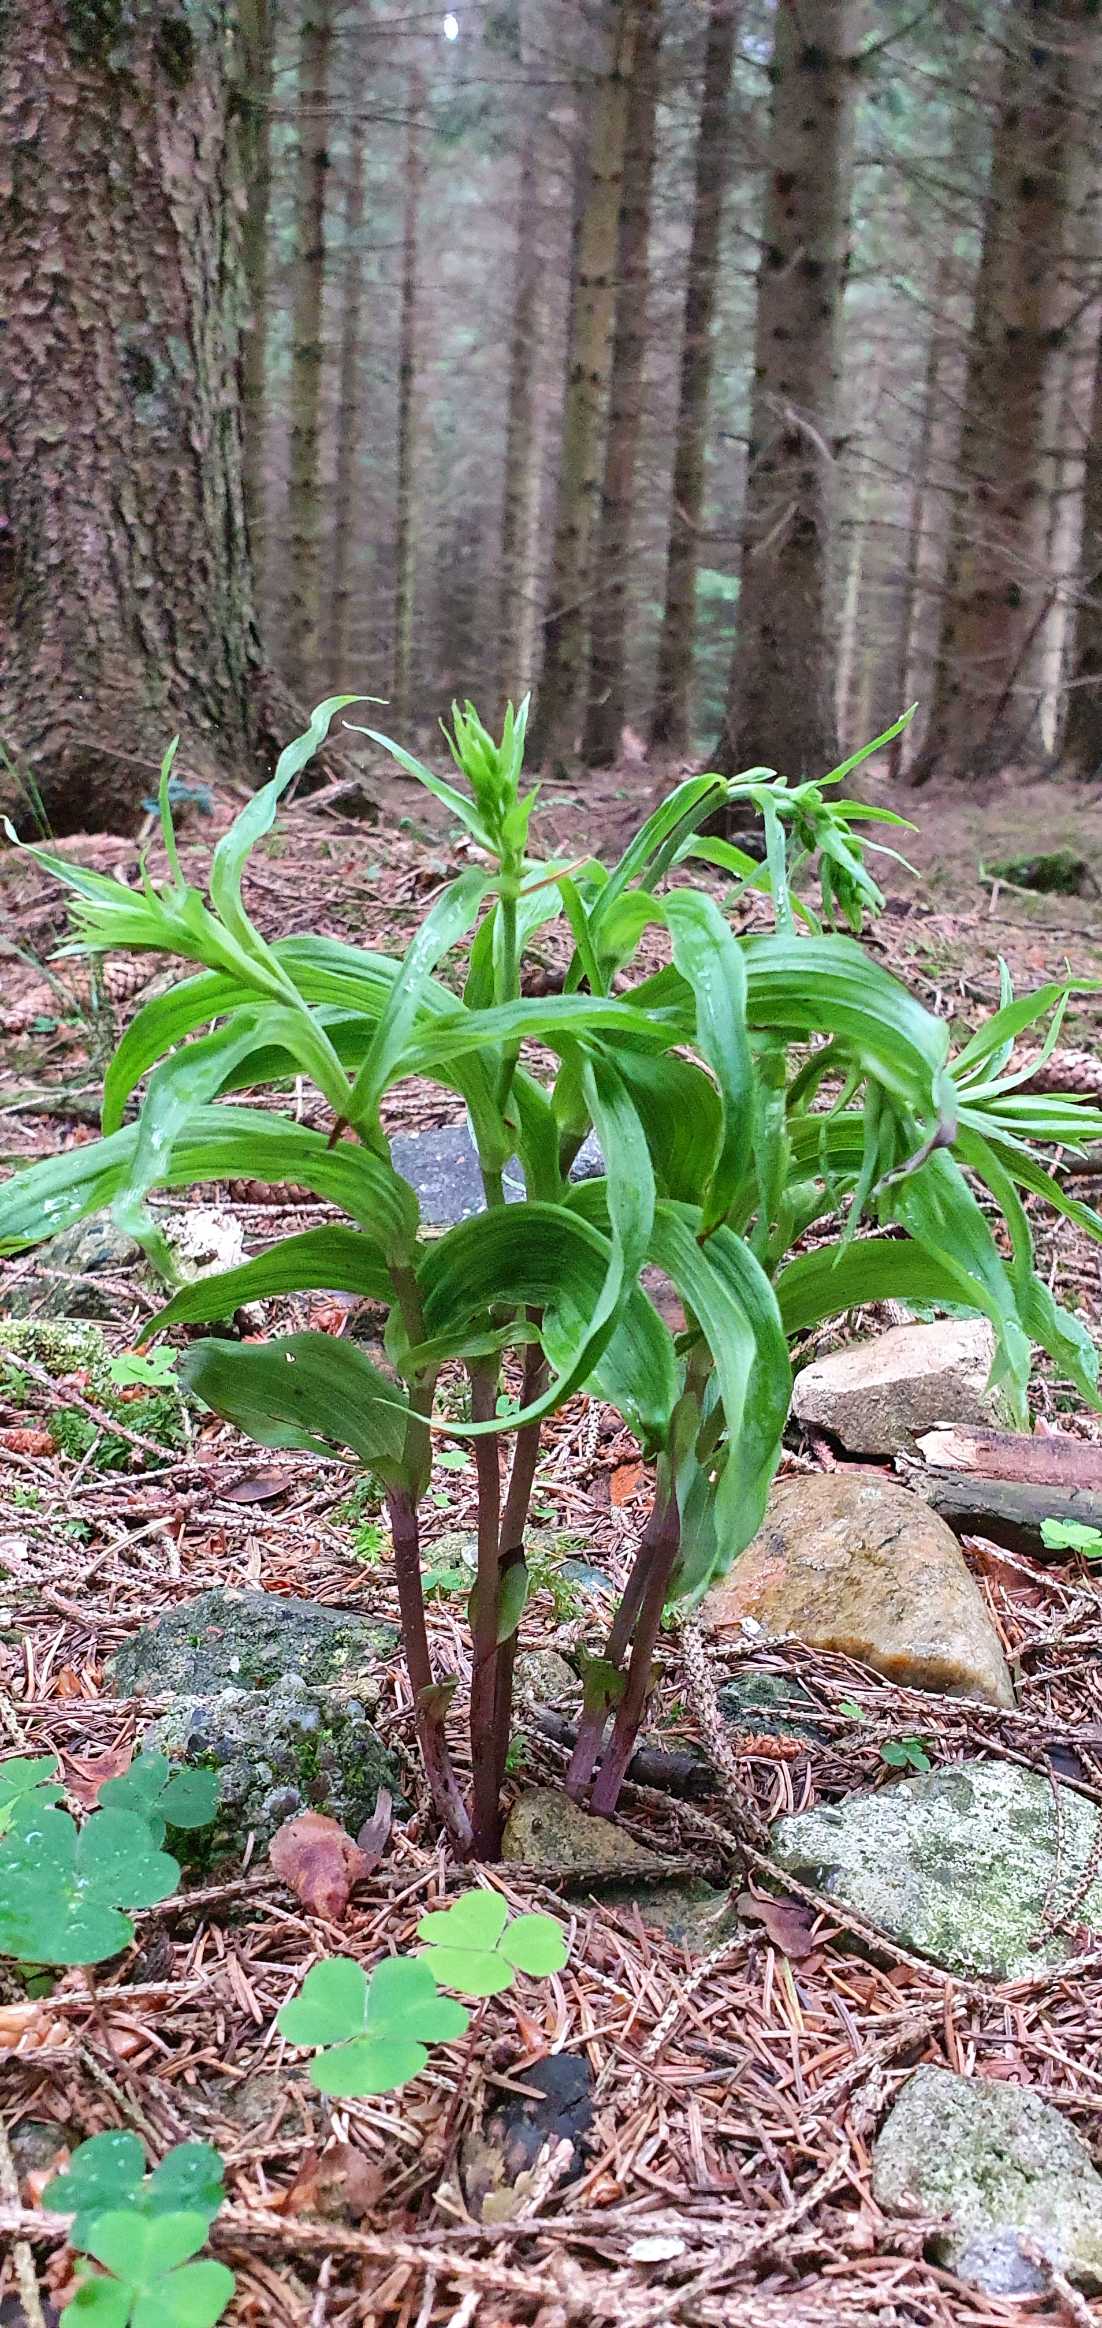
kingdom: Plantae
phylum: Tracheophyta
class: Liliopsida
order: Asparagales
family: Orchidaceae
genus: Epipactis
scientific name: Epipactis
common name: Hullæbeslægten
